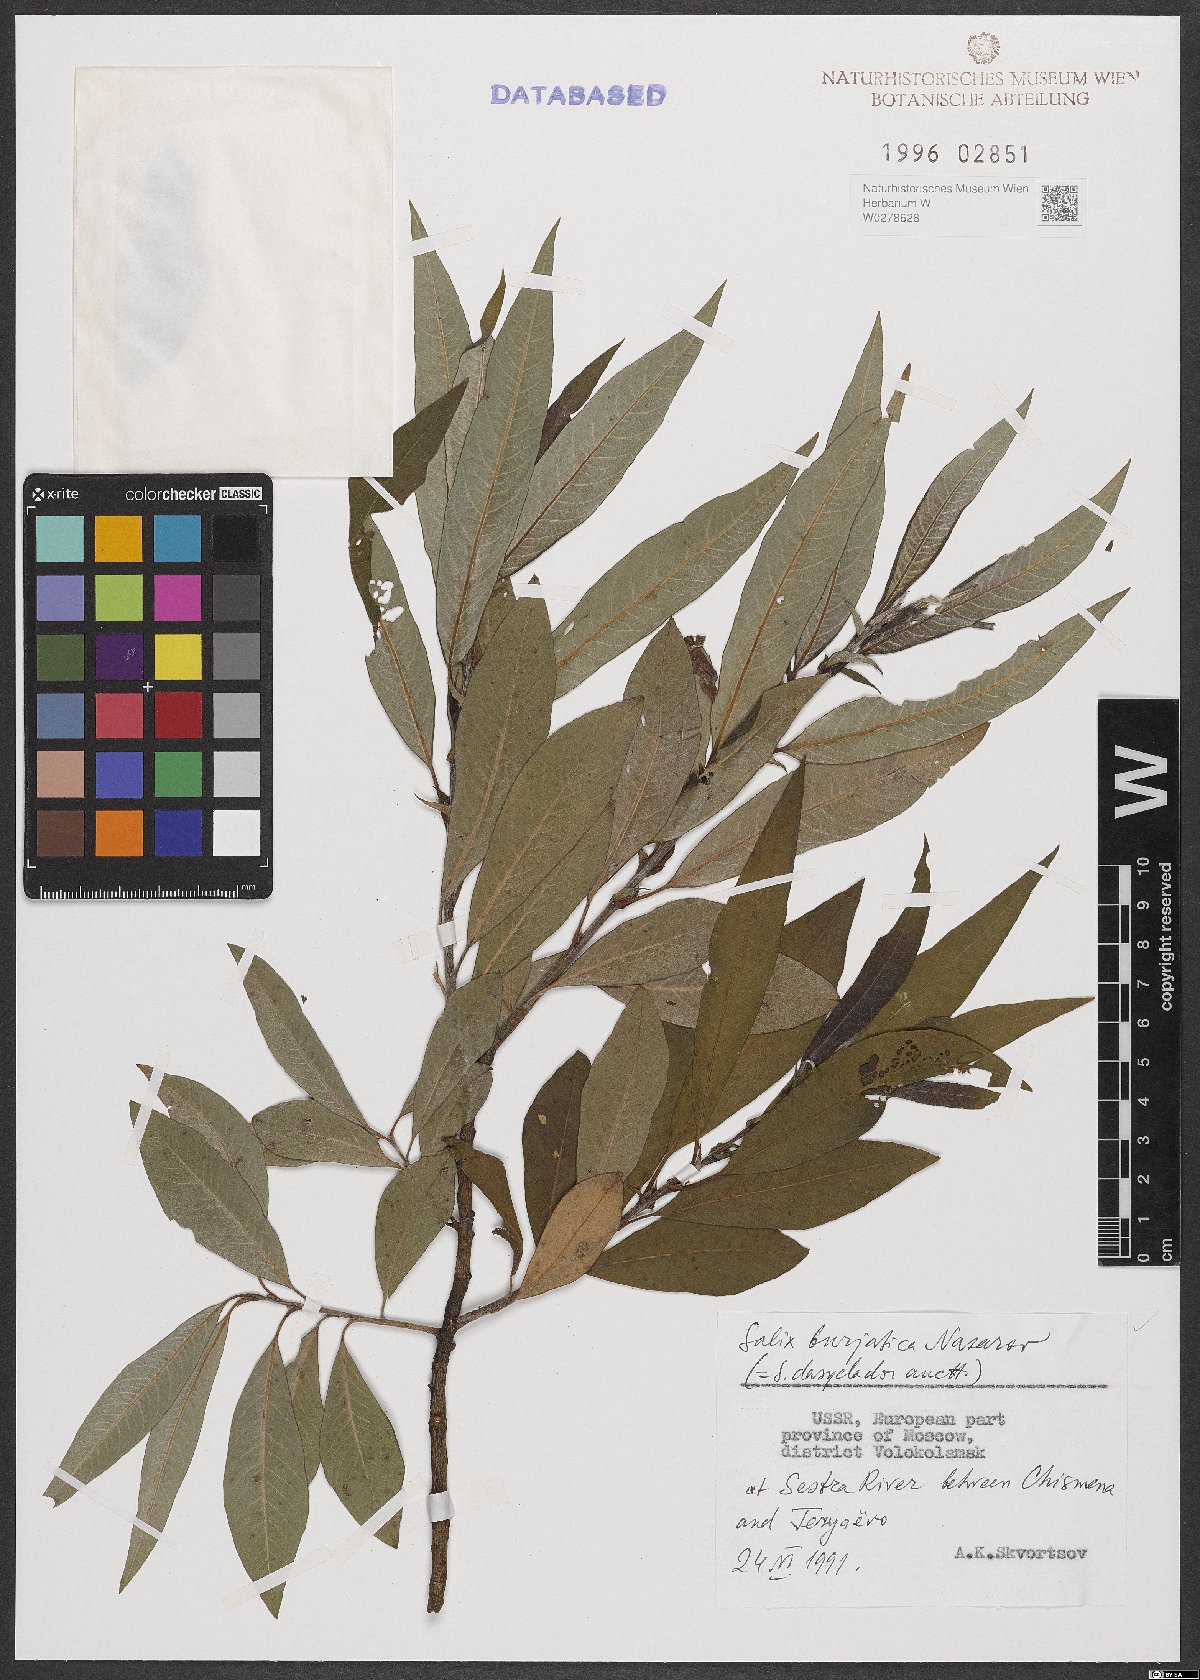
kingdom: Plantae
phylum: Tracheophyta
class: Magnoliopsida
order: Malpighiales
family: Salicaceae
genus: Salix
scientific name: Salix gmelinii
